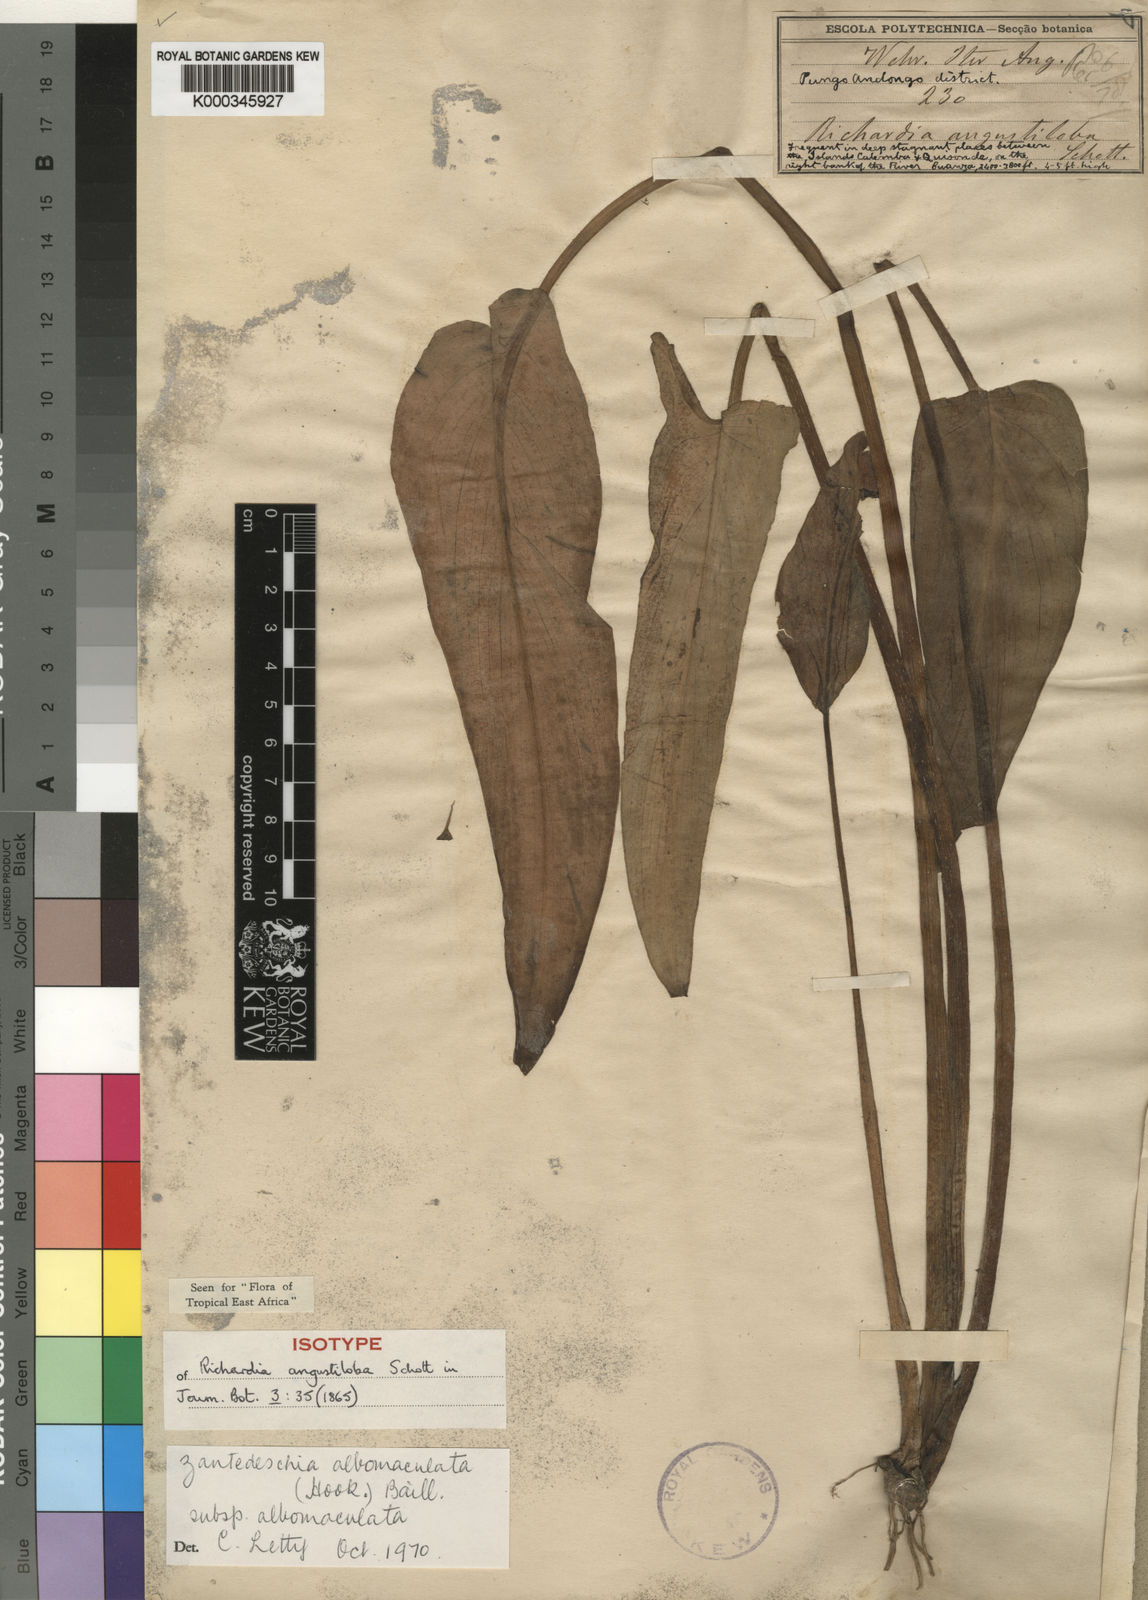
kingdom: Plantae
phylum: Tracheophyta
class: Liliopsida
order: Alismatales
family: Araceae
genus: Zantedeschia
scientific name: Zantedeschia albomaculata
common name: Spotted calla lily
